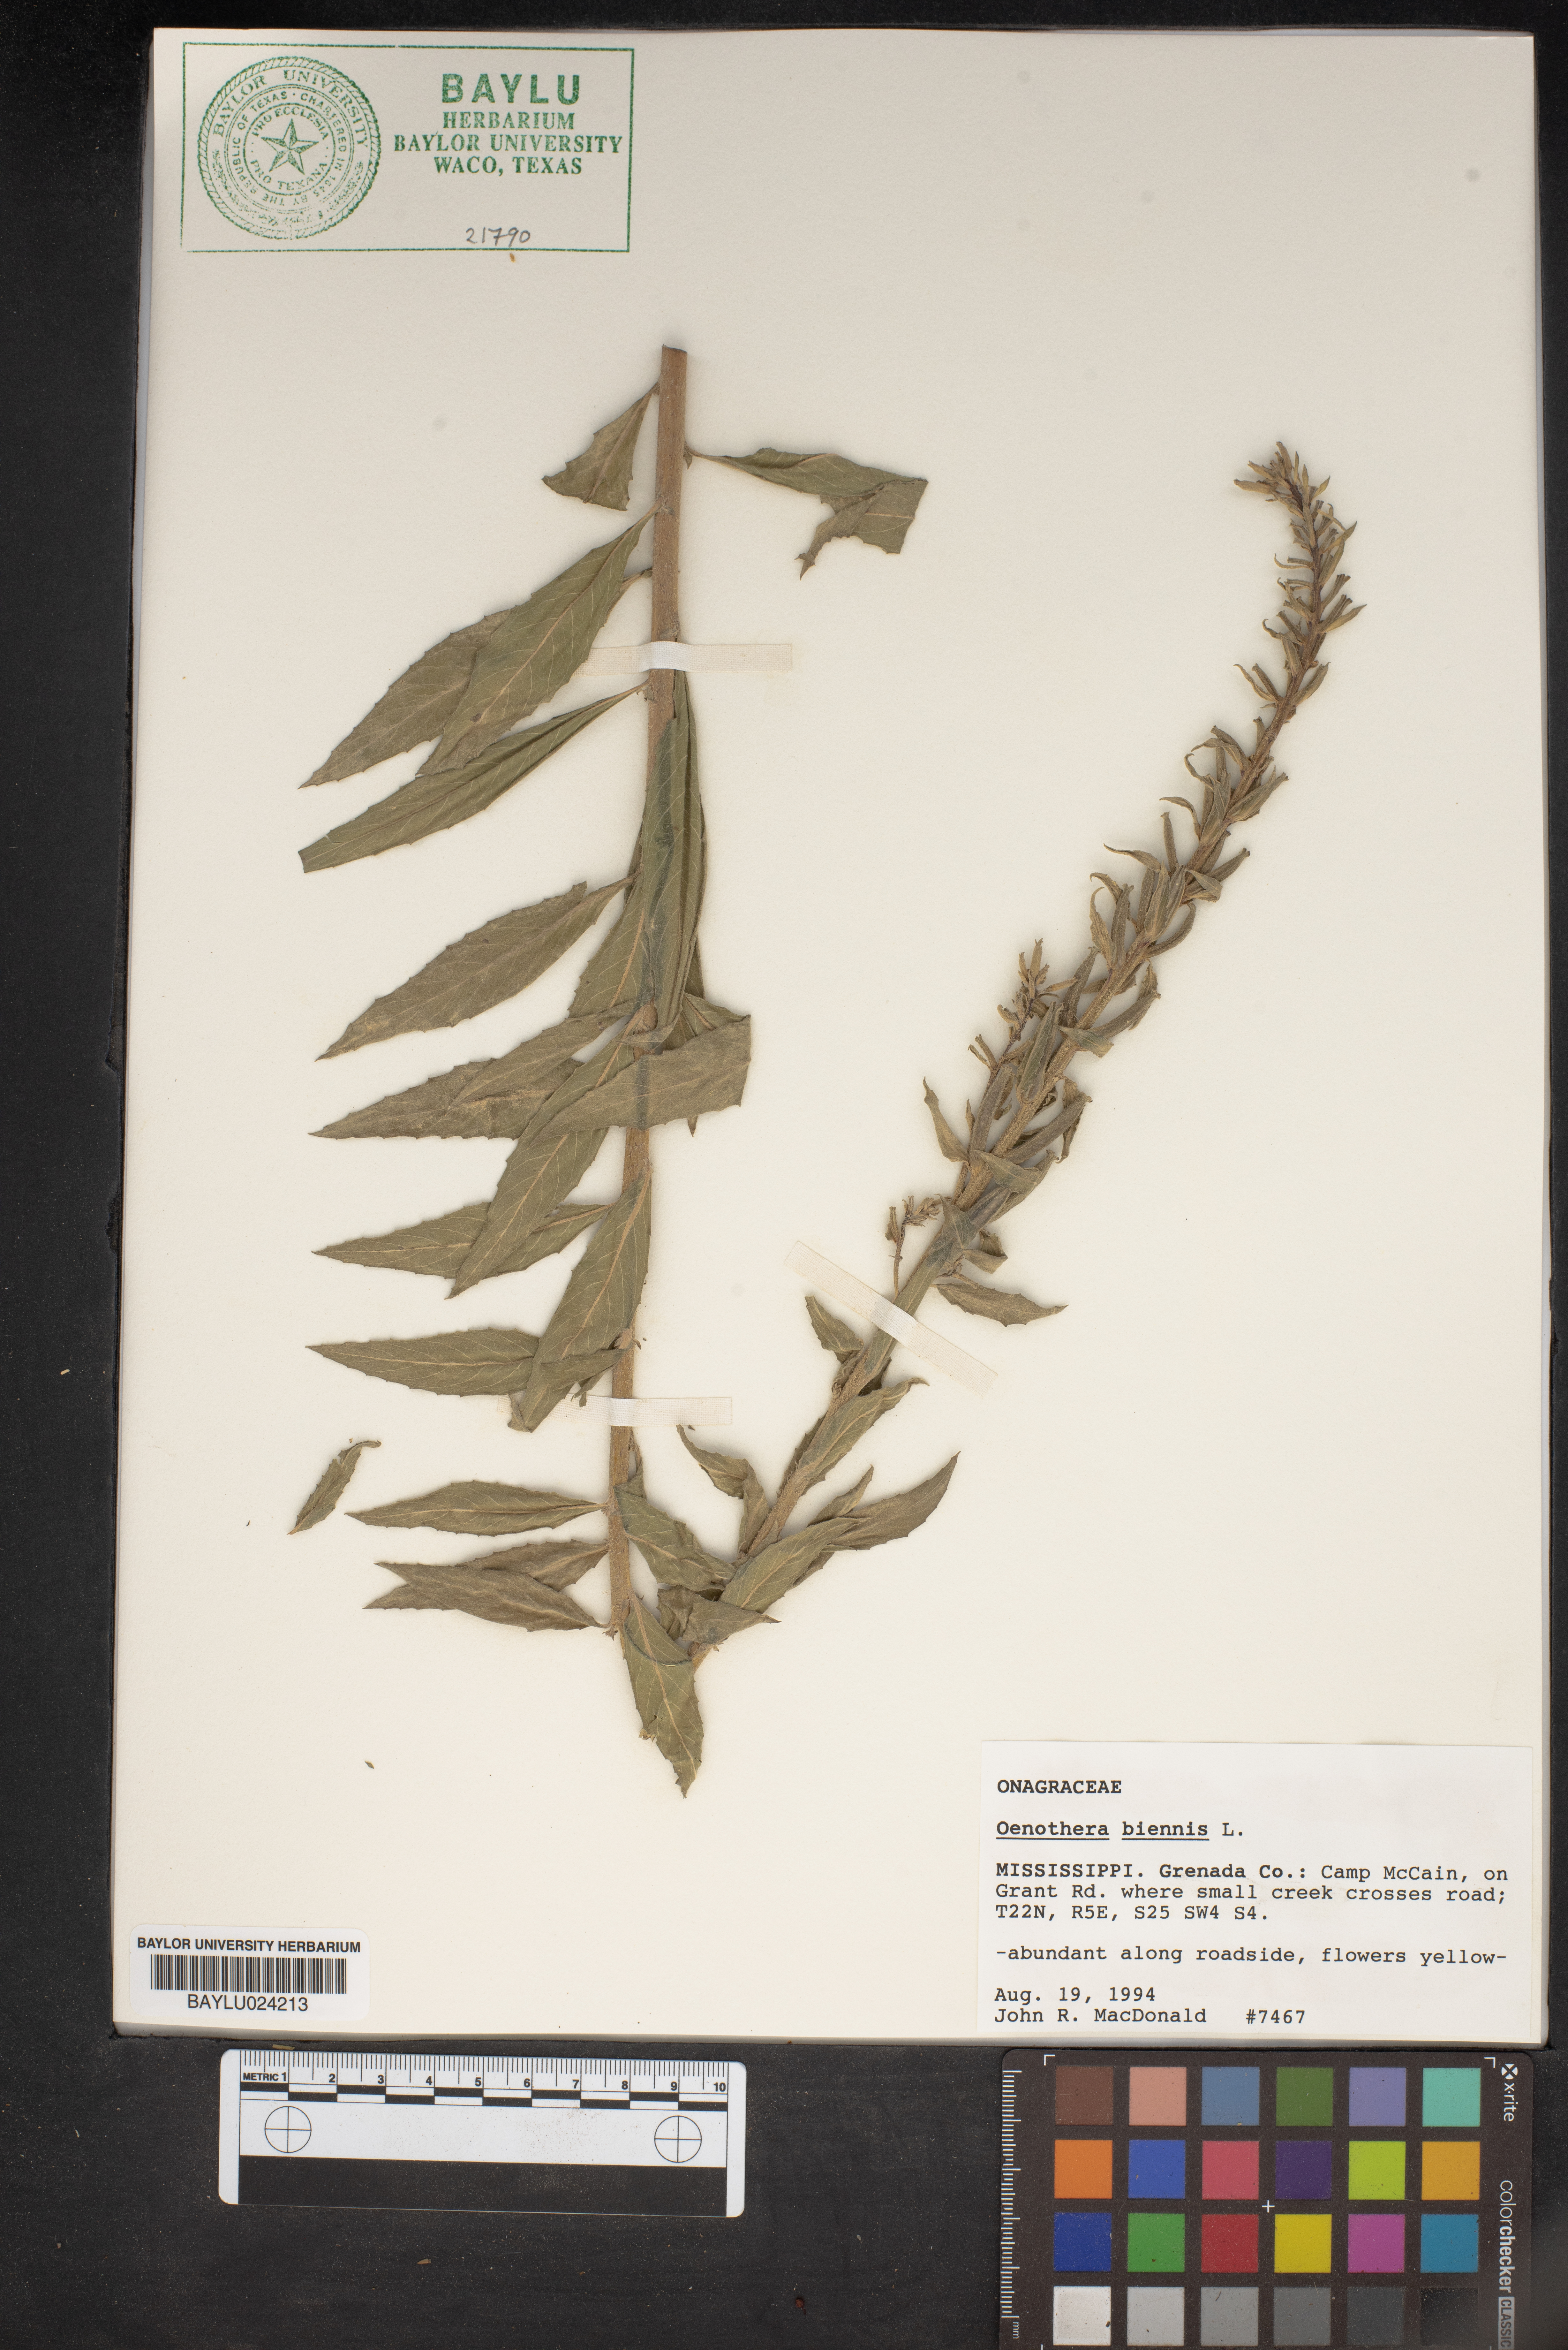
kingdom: Plantae
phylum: Tracheophyta
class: Magnoliopsida
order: Myrtales
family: Onagraceae
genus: Oenothera
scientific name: Oenothera biennis
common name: Common evening-primrose
